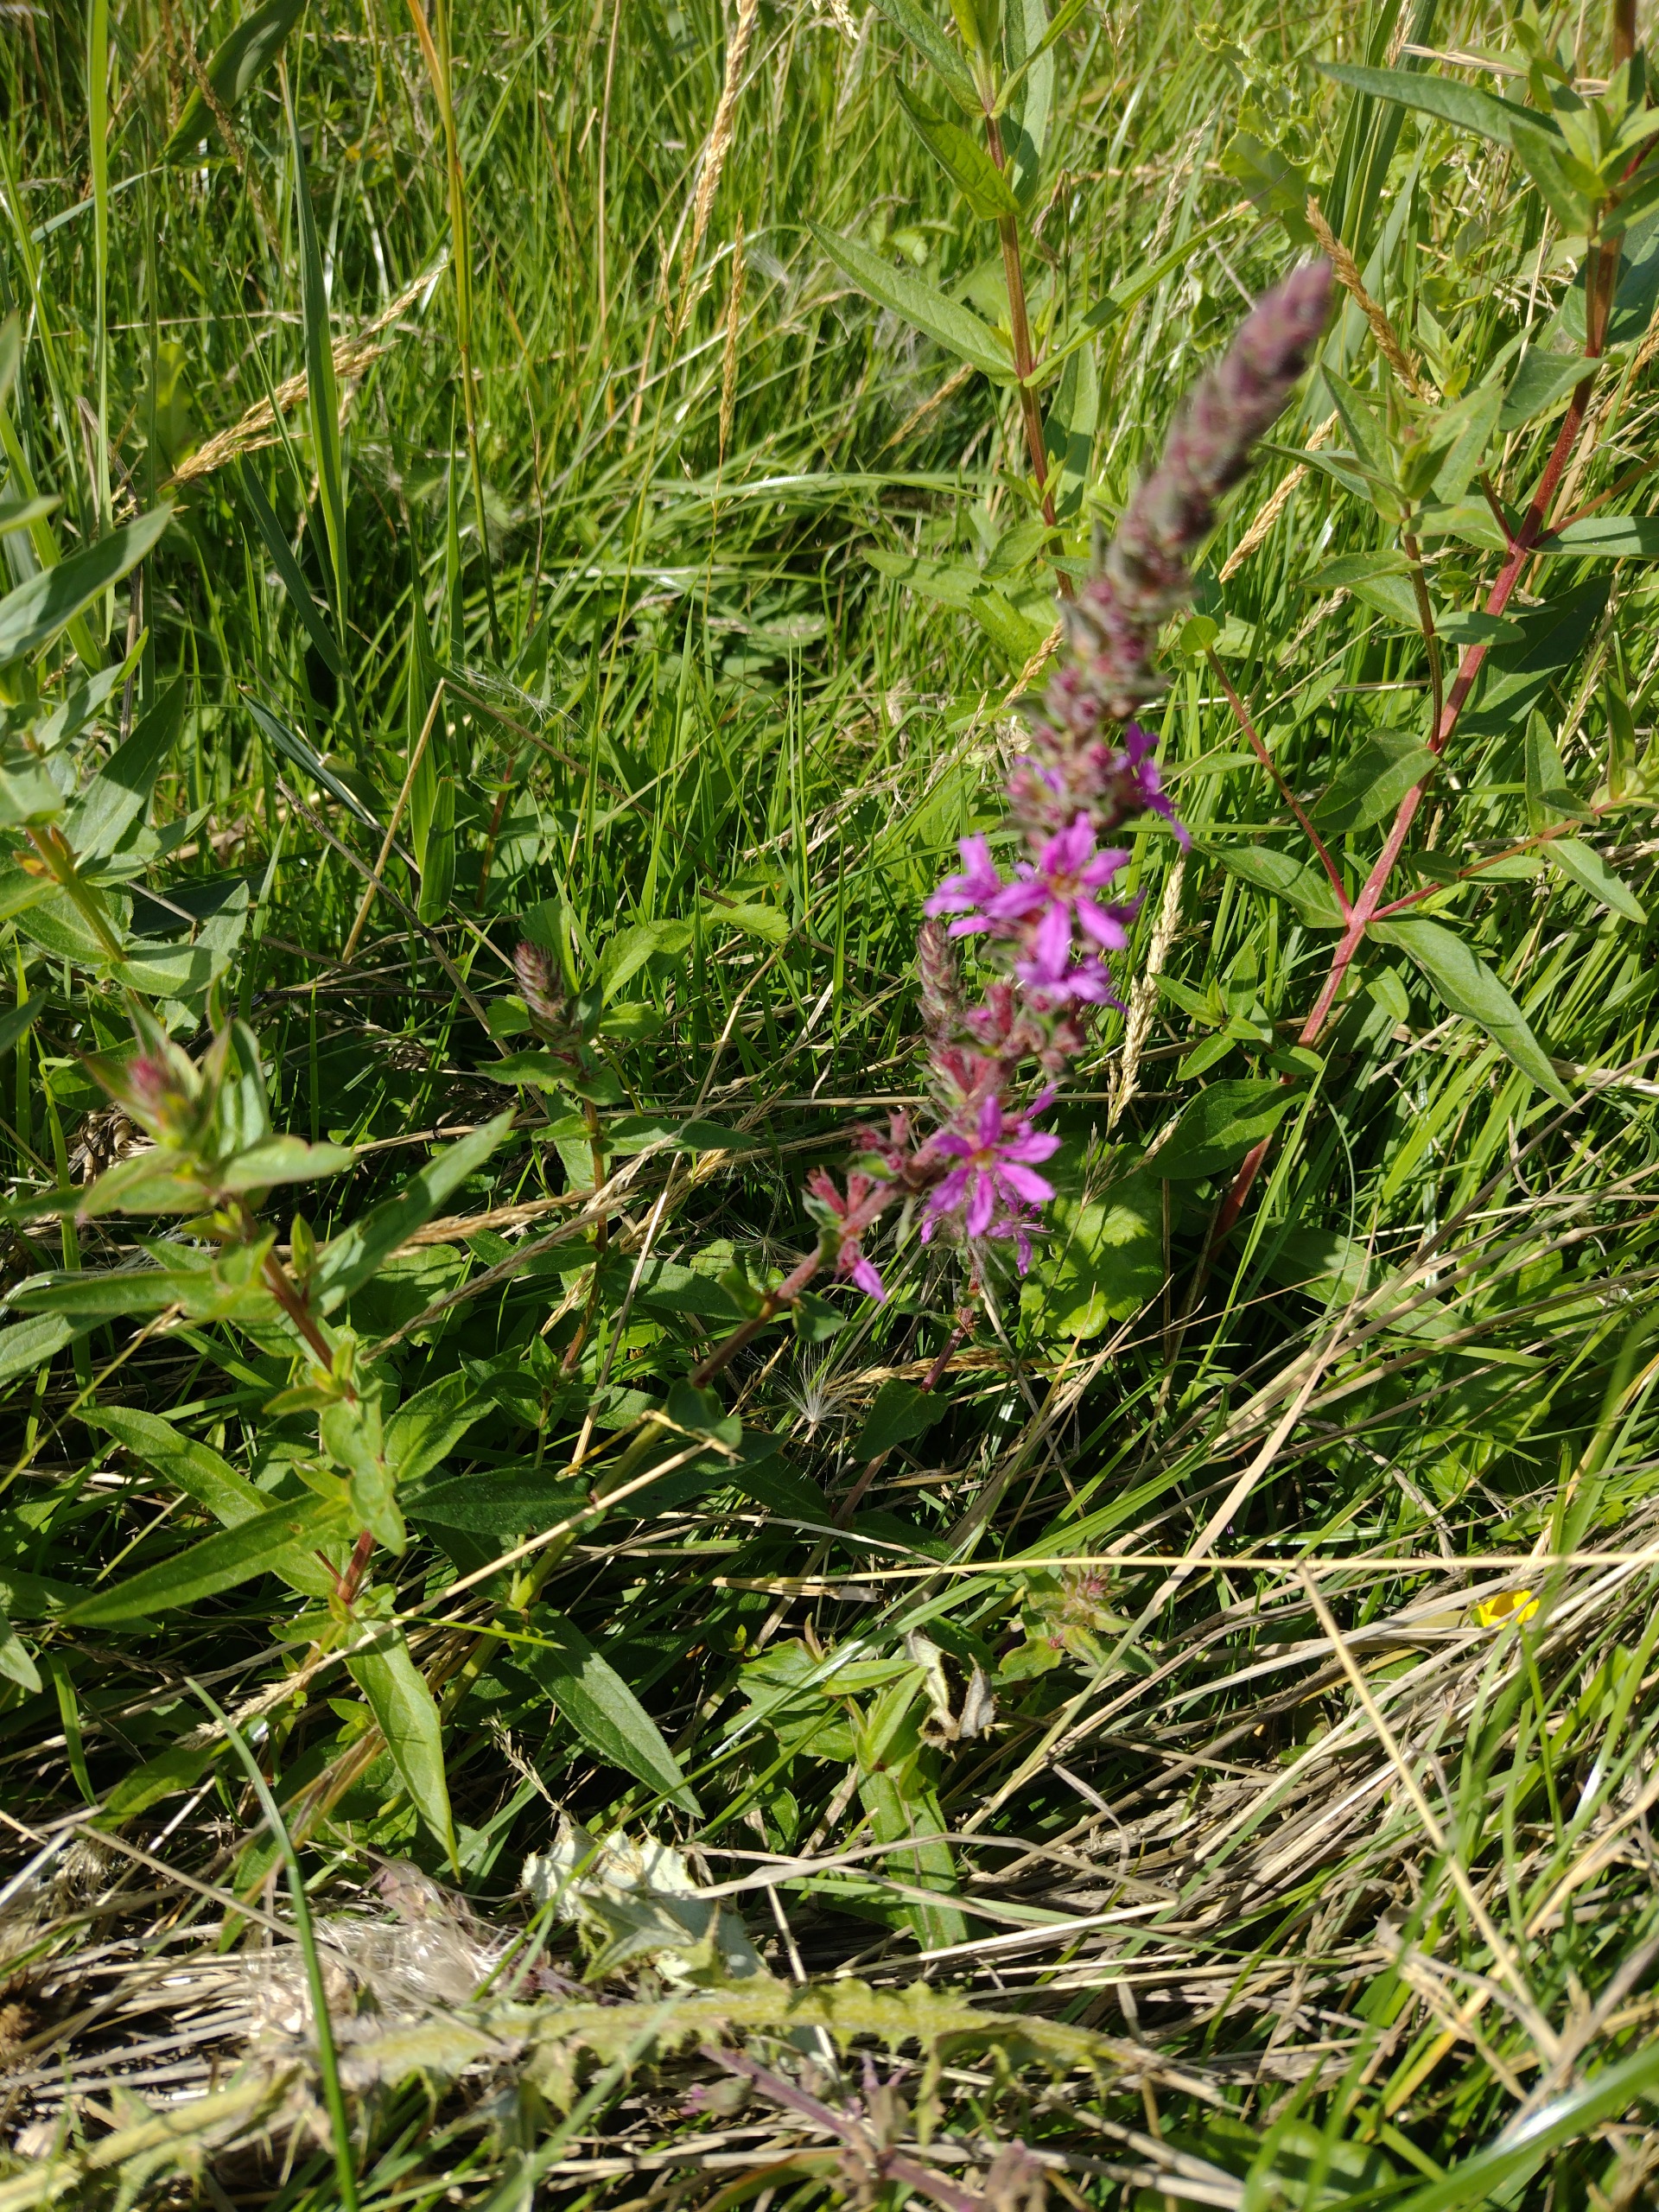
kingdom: Plantae
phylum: Tracheophyta
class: Magnoliopsida
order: Myrtales
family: Lythraceae
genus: Lythrum
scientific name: Lythrum salicaria
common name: Kattehale
